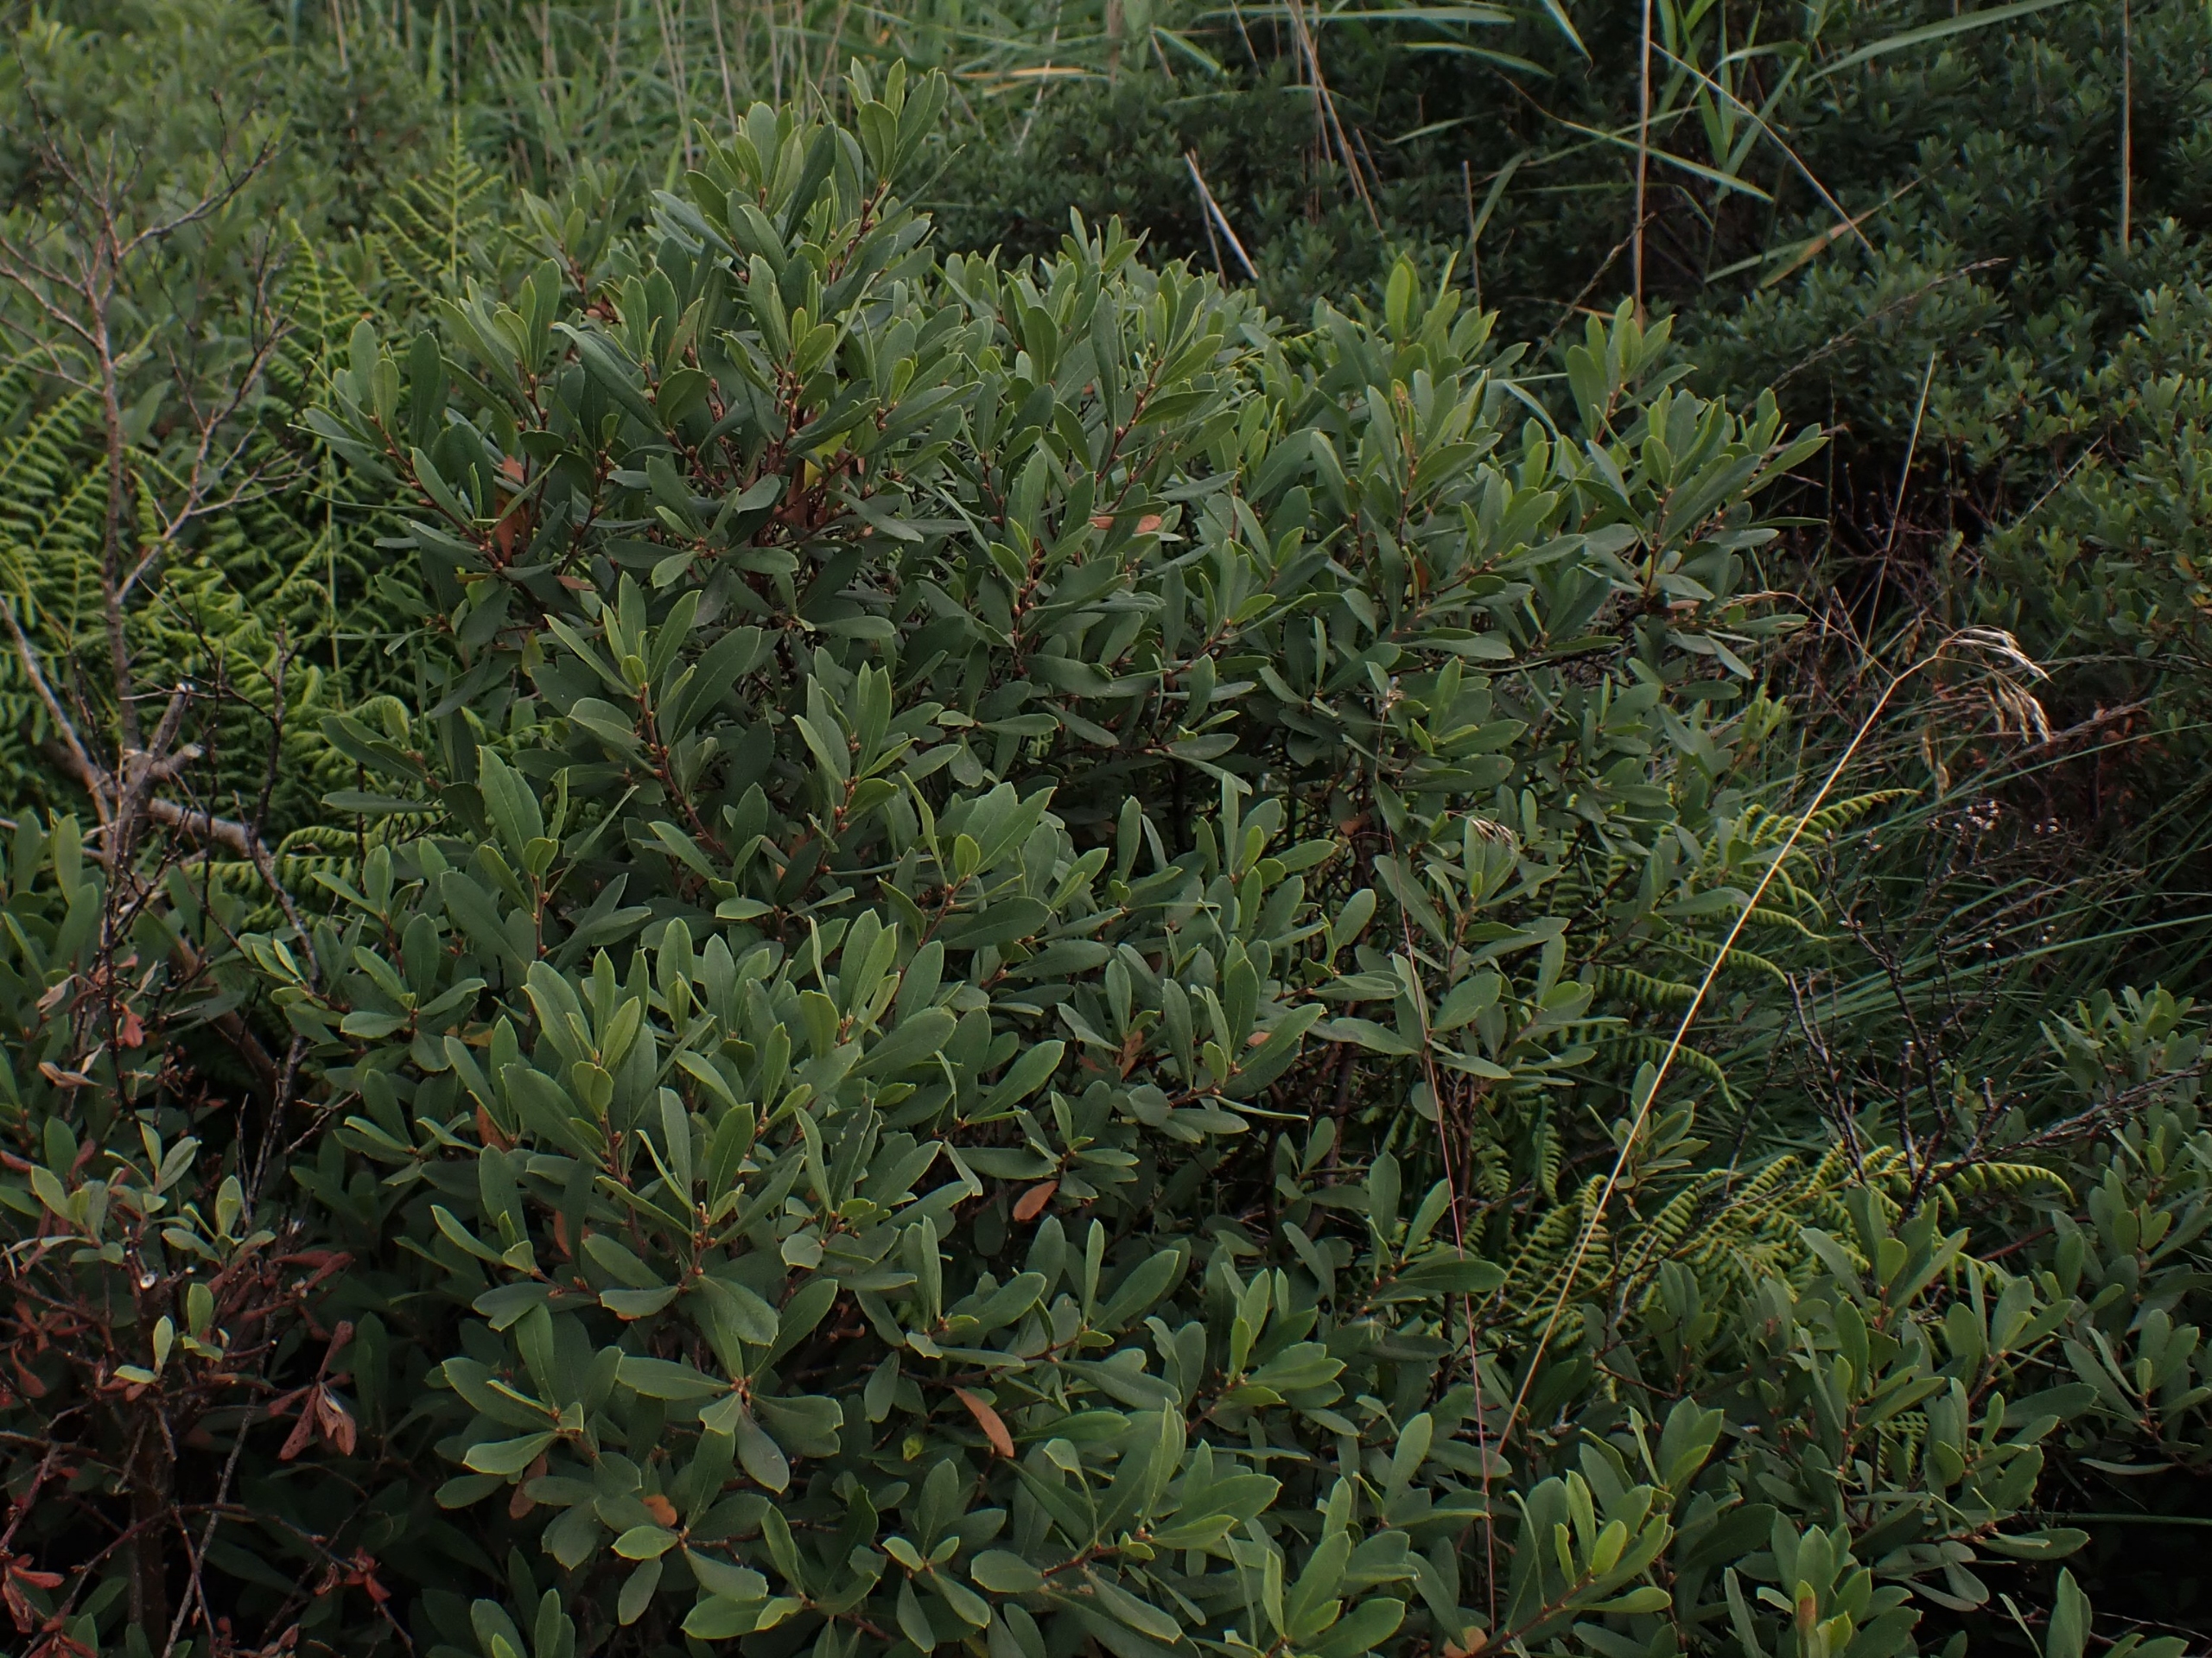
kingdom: Plantae
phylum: Tracheophyta
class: Magnoliopsida
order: Fagales
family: Myricaceae
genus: Myrica
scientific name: Myrica gale
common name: Pors
